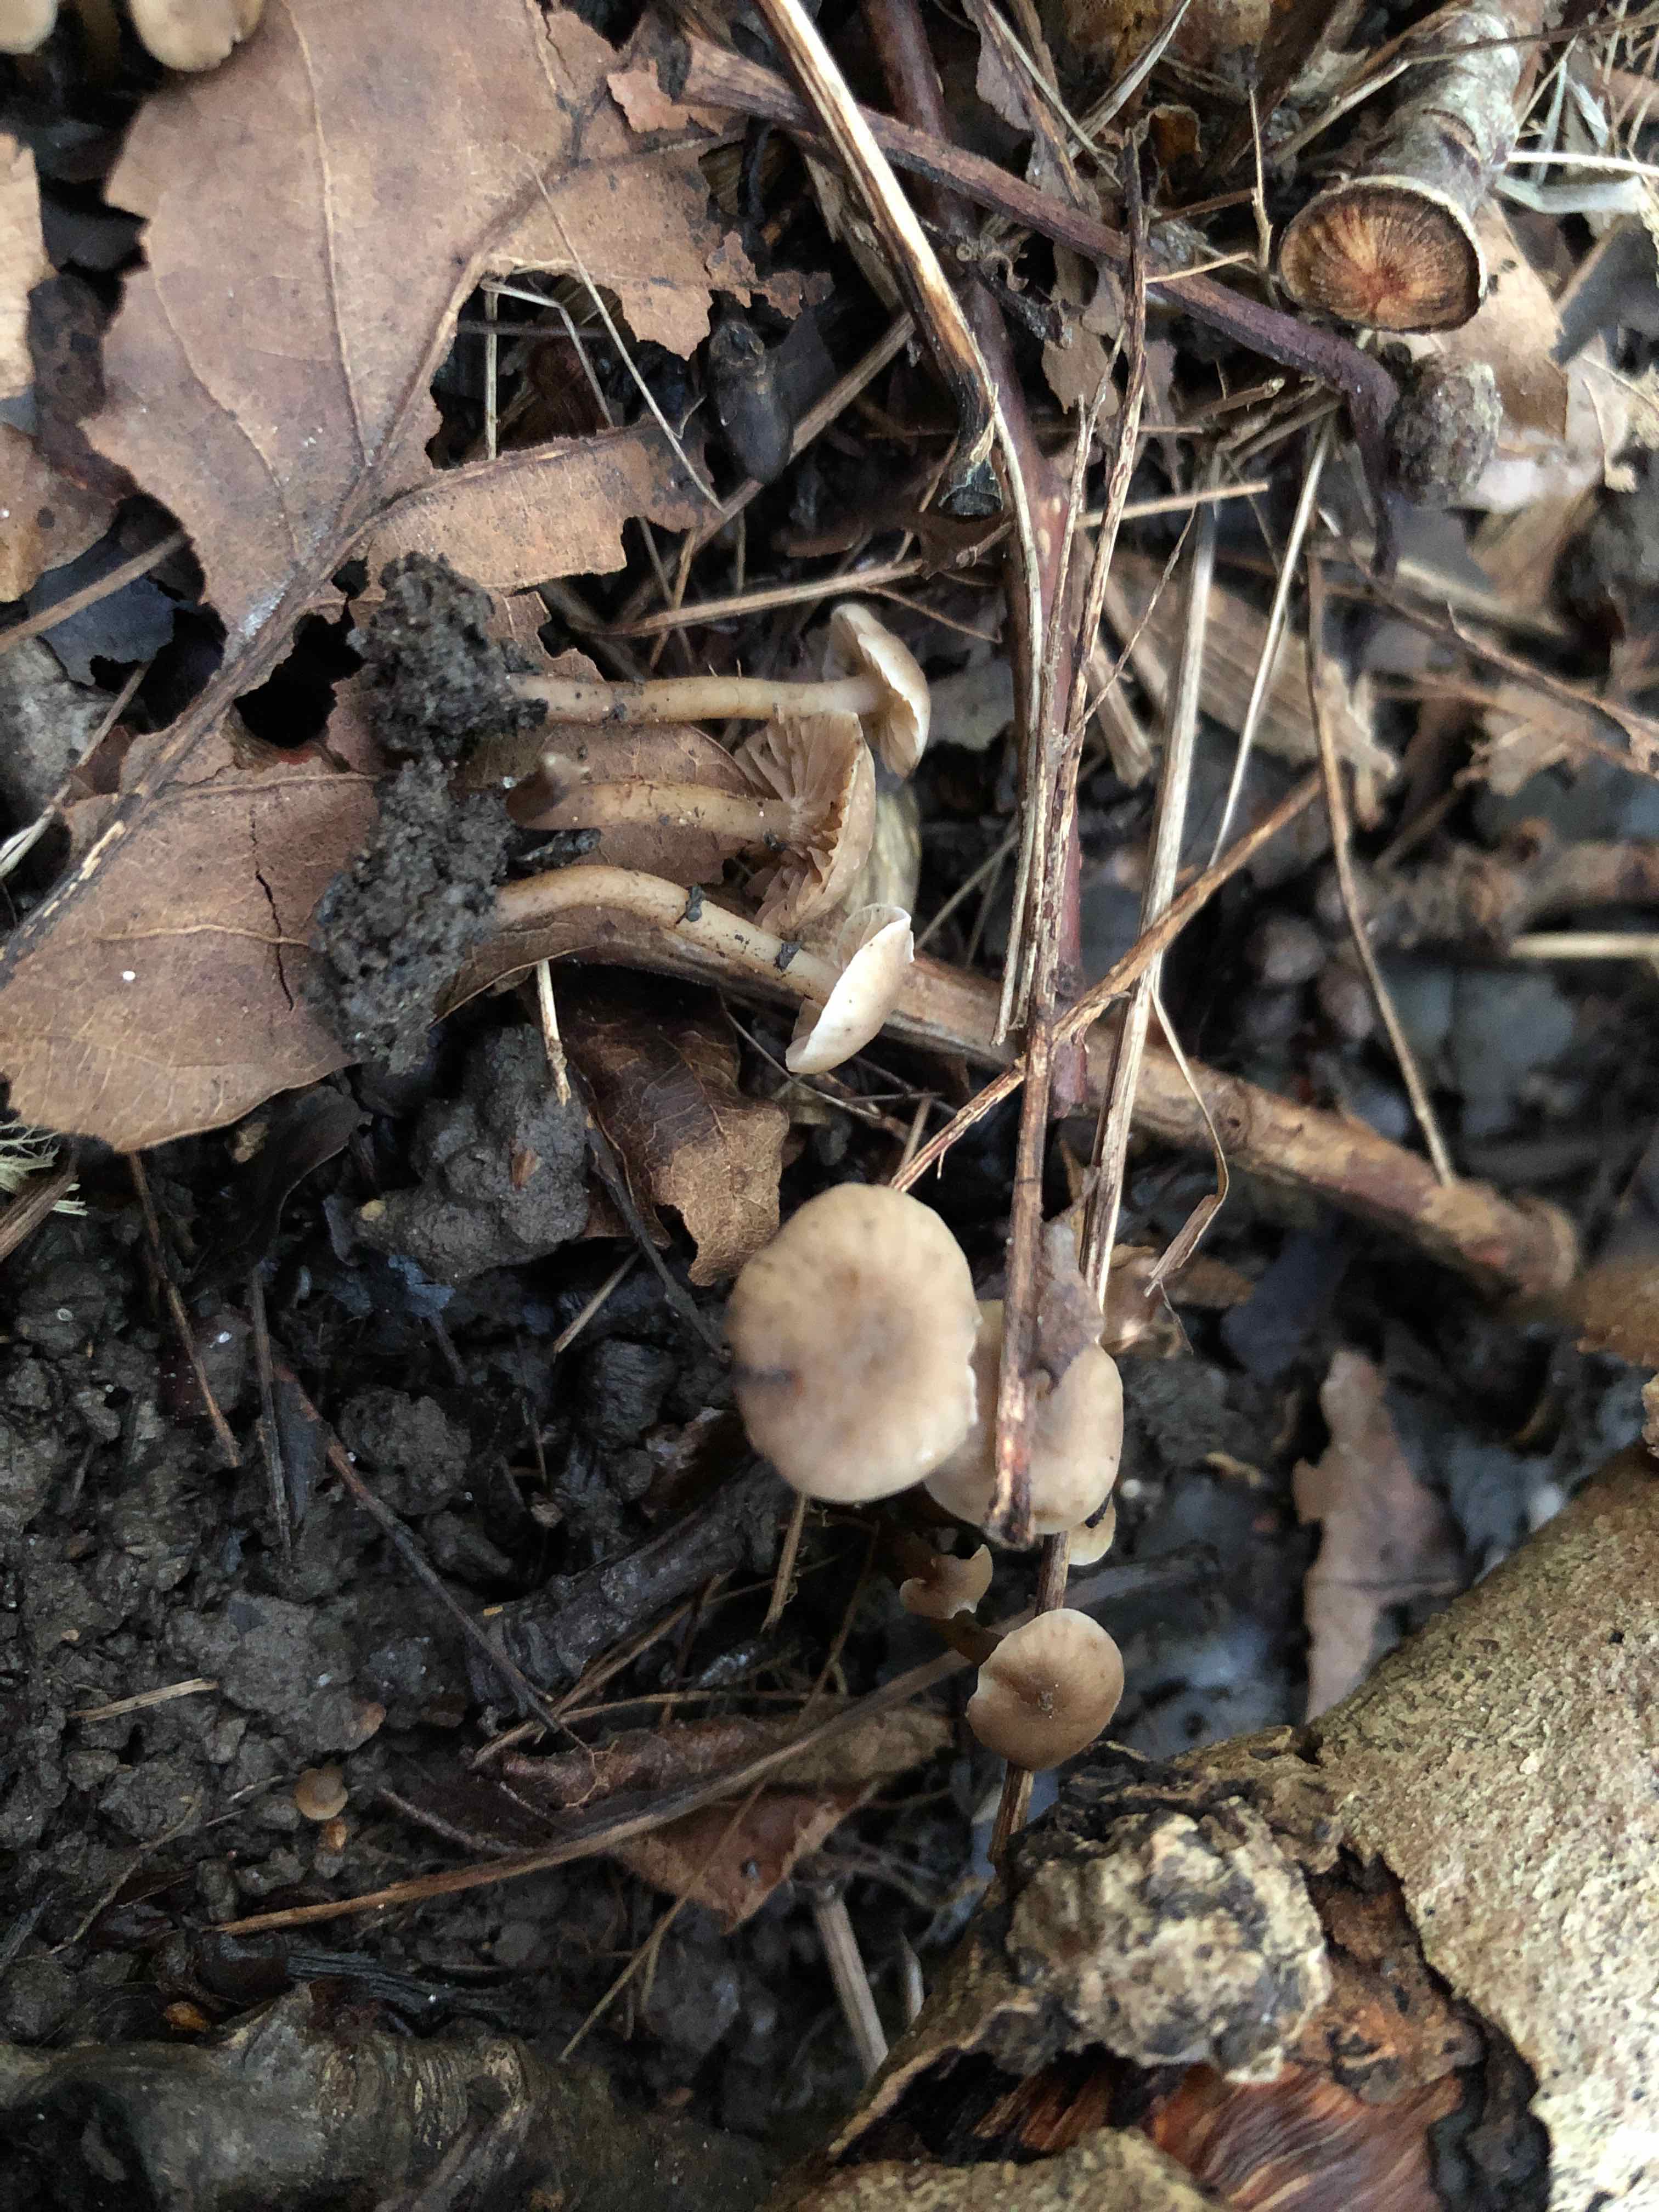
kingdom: Fungi
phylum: Basidiomycota
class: Agaricomycetes
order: Agaricales
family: Clavariaceae
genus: Hodophilus
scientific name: Hodophilus foetens
